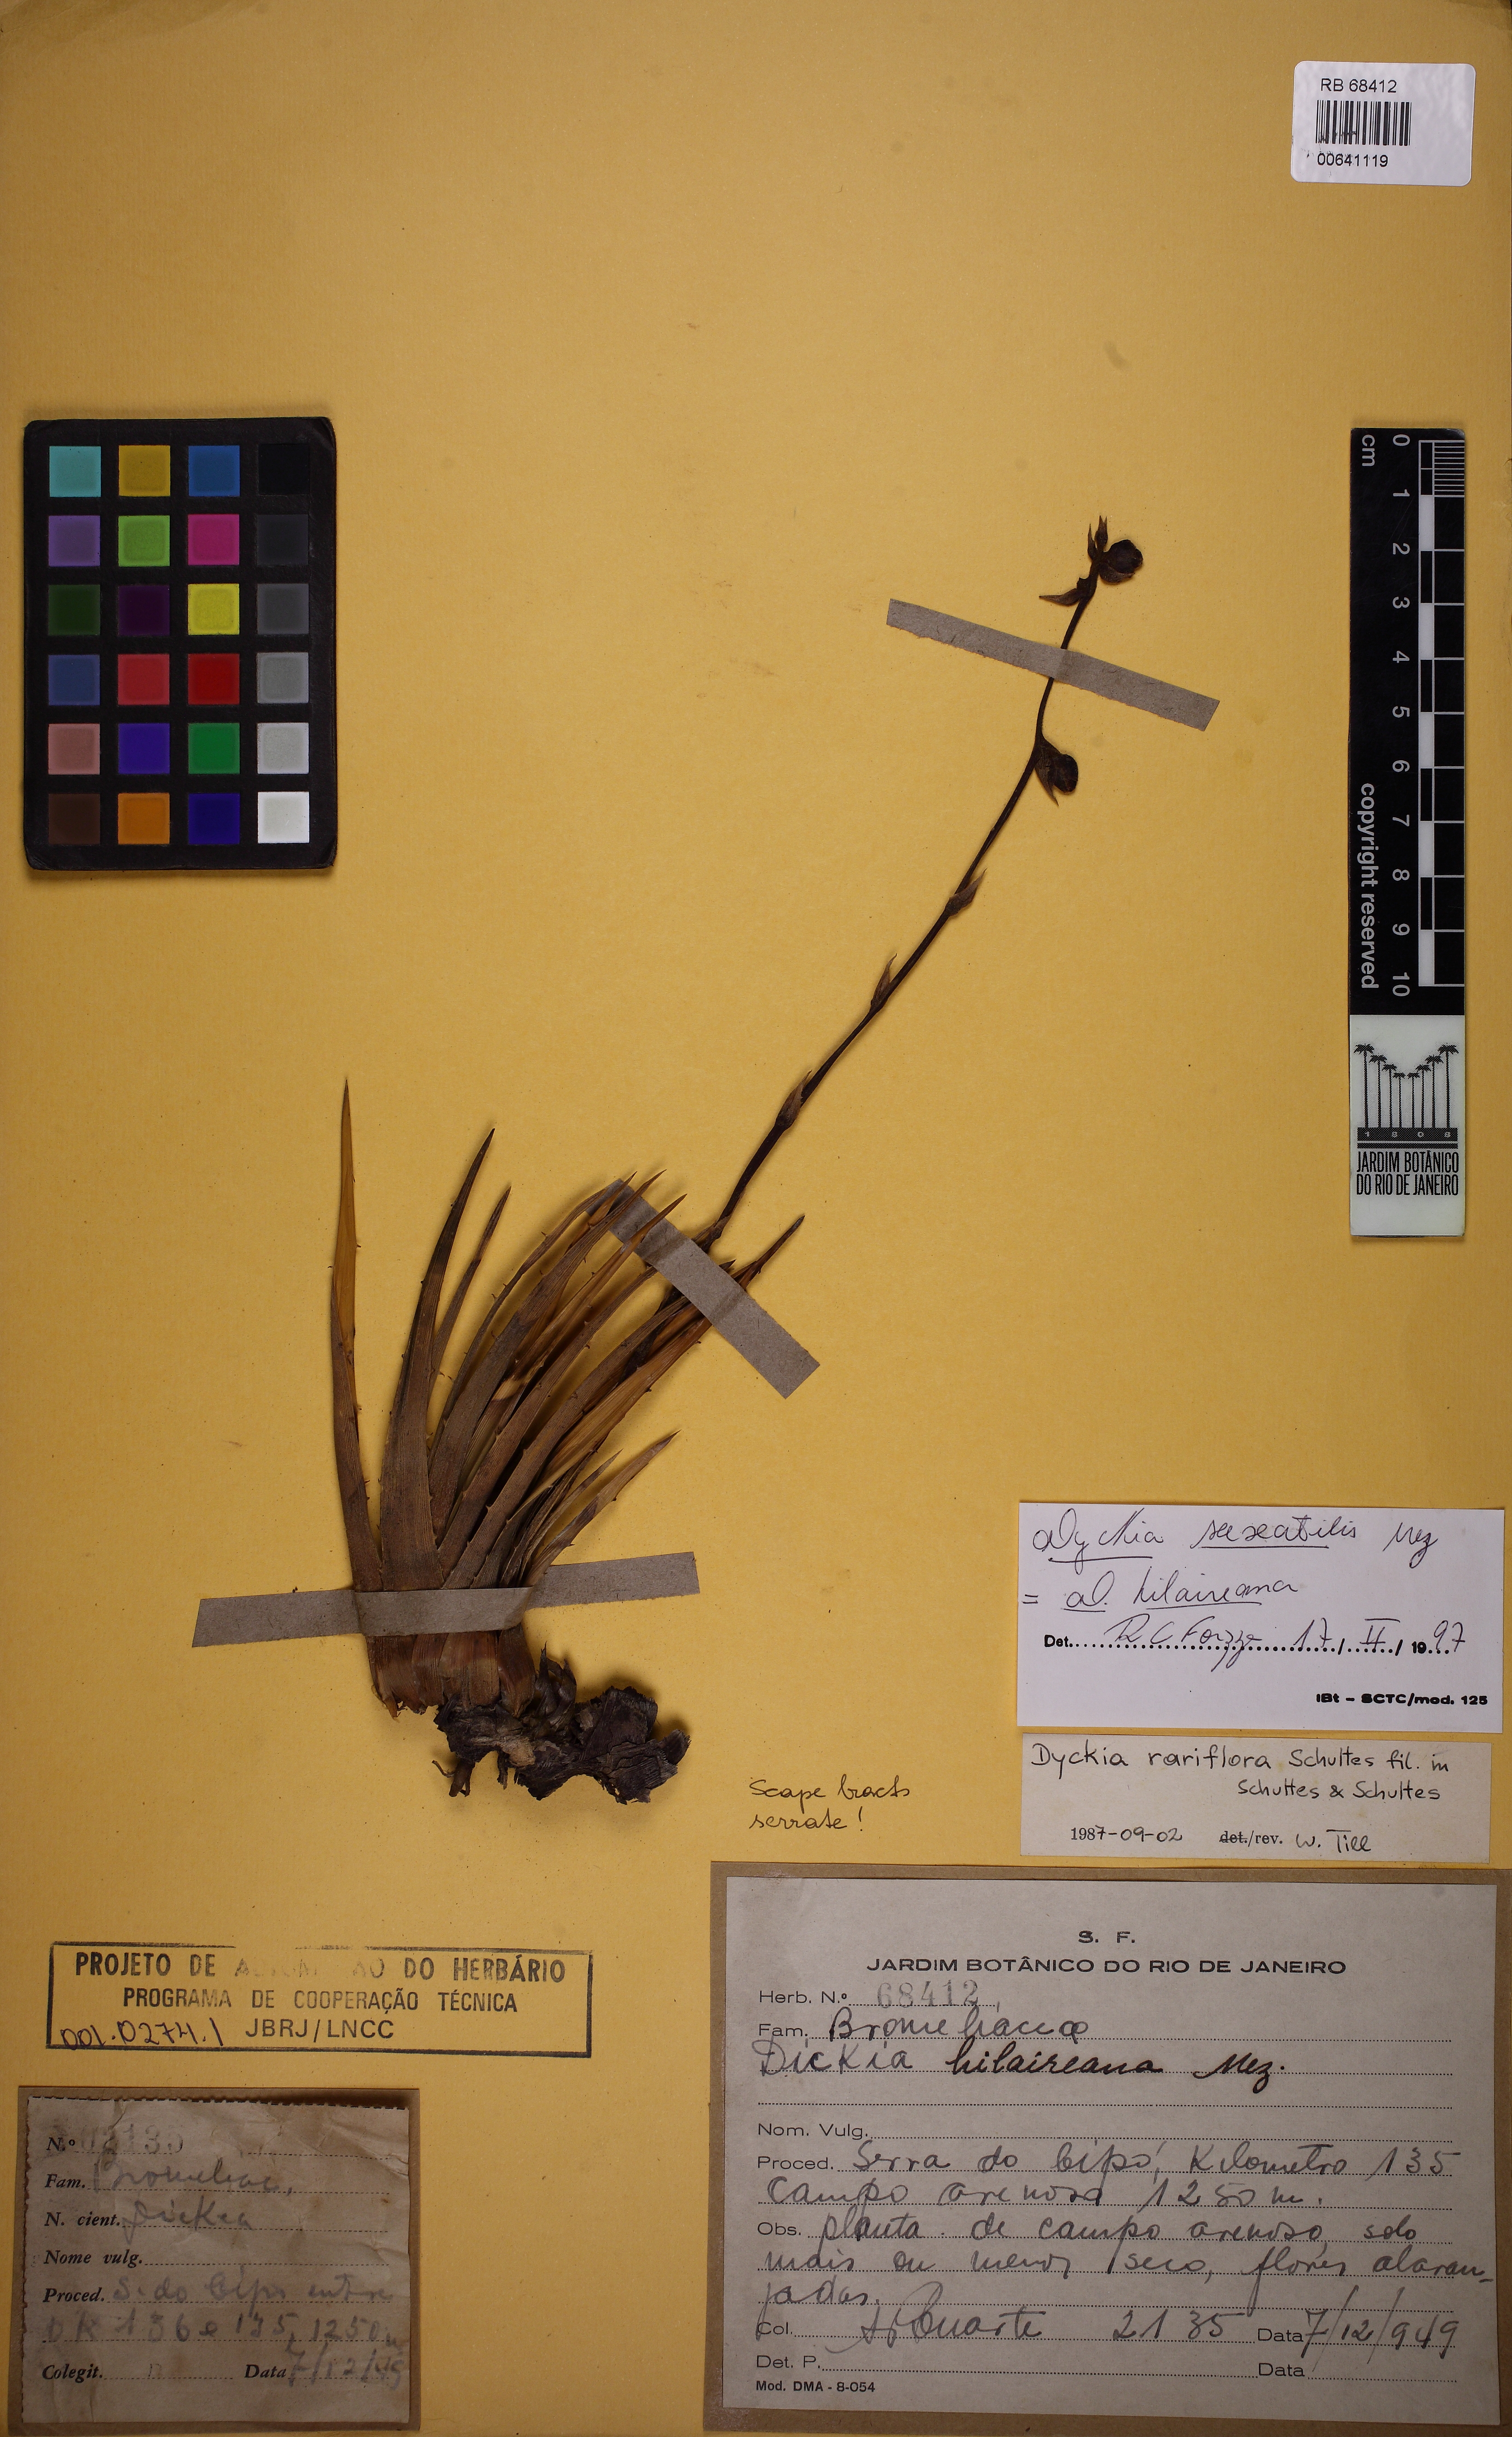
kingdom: Plantae
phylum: Tracheophyta
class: Liliopsida
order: Poales
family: Bromeliaceae
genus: Dyckia
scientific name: Dyckia saxatilis
